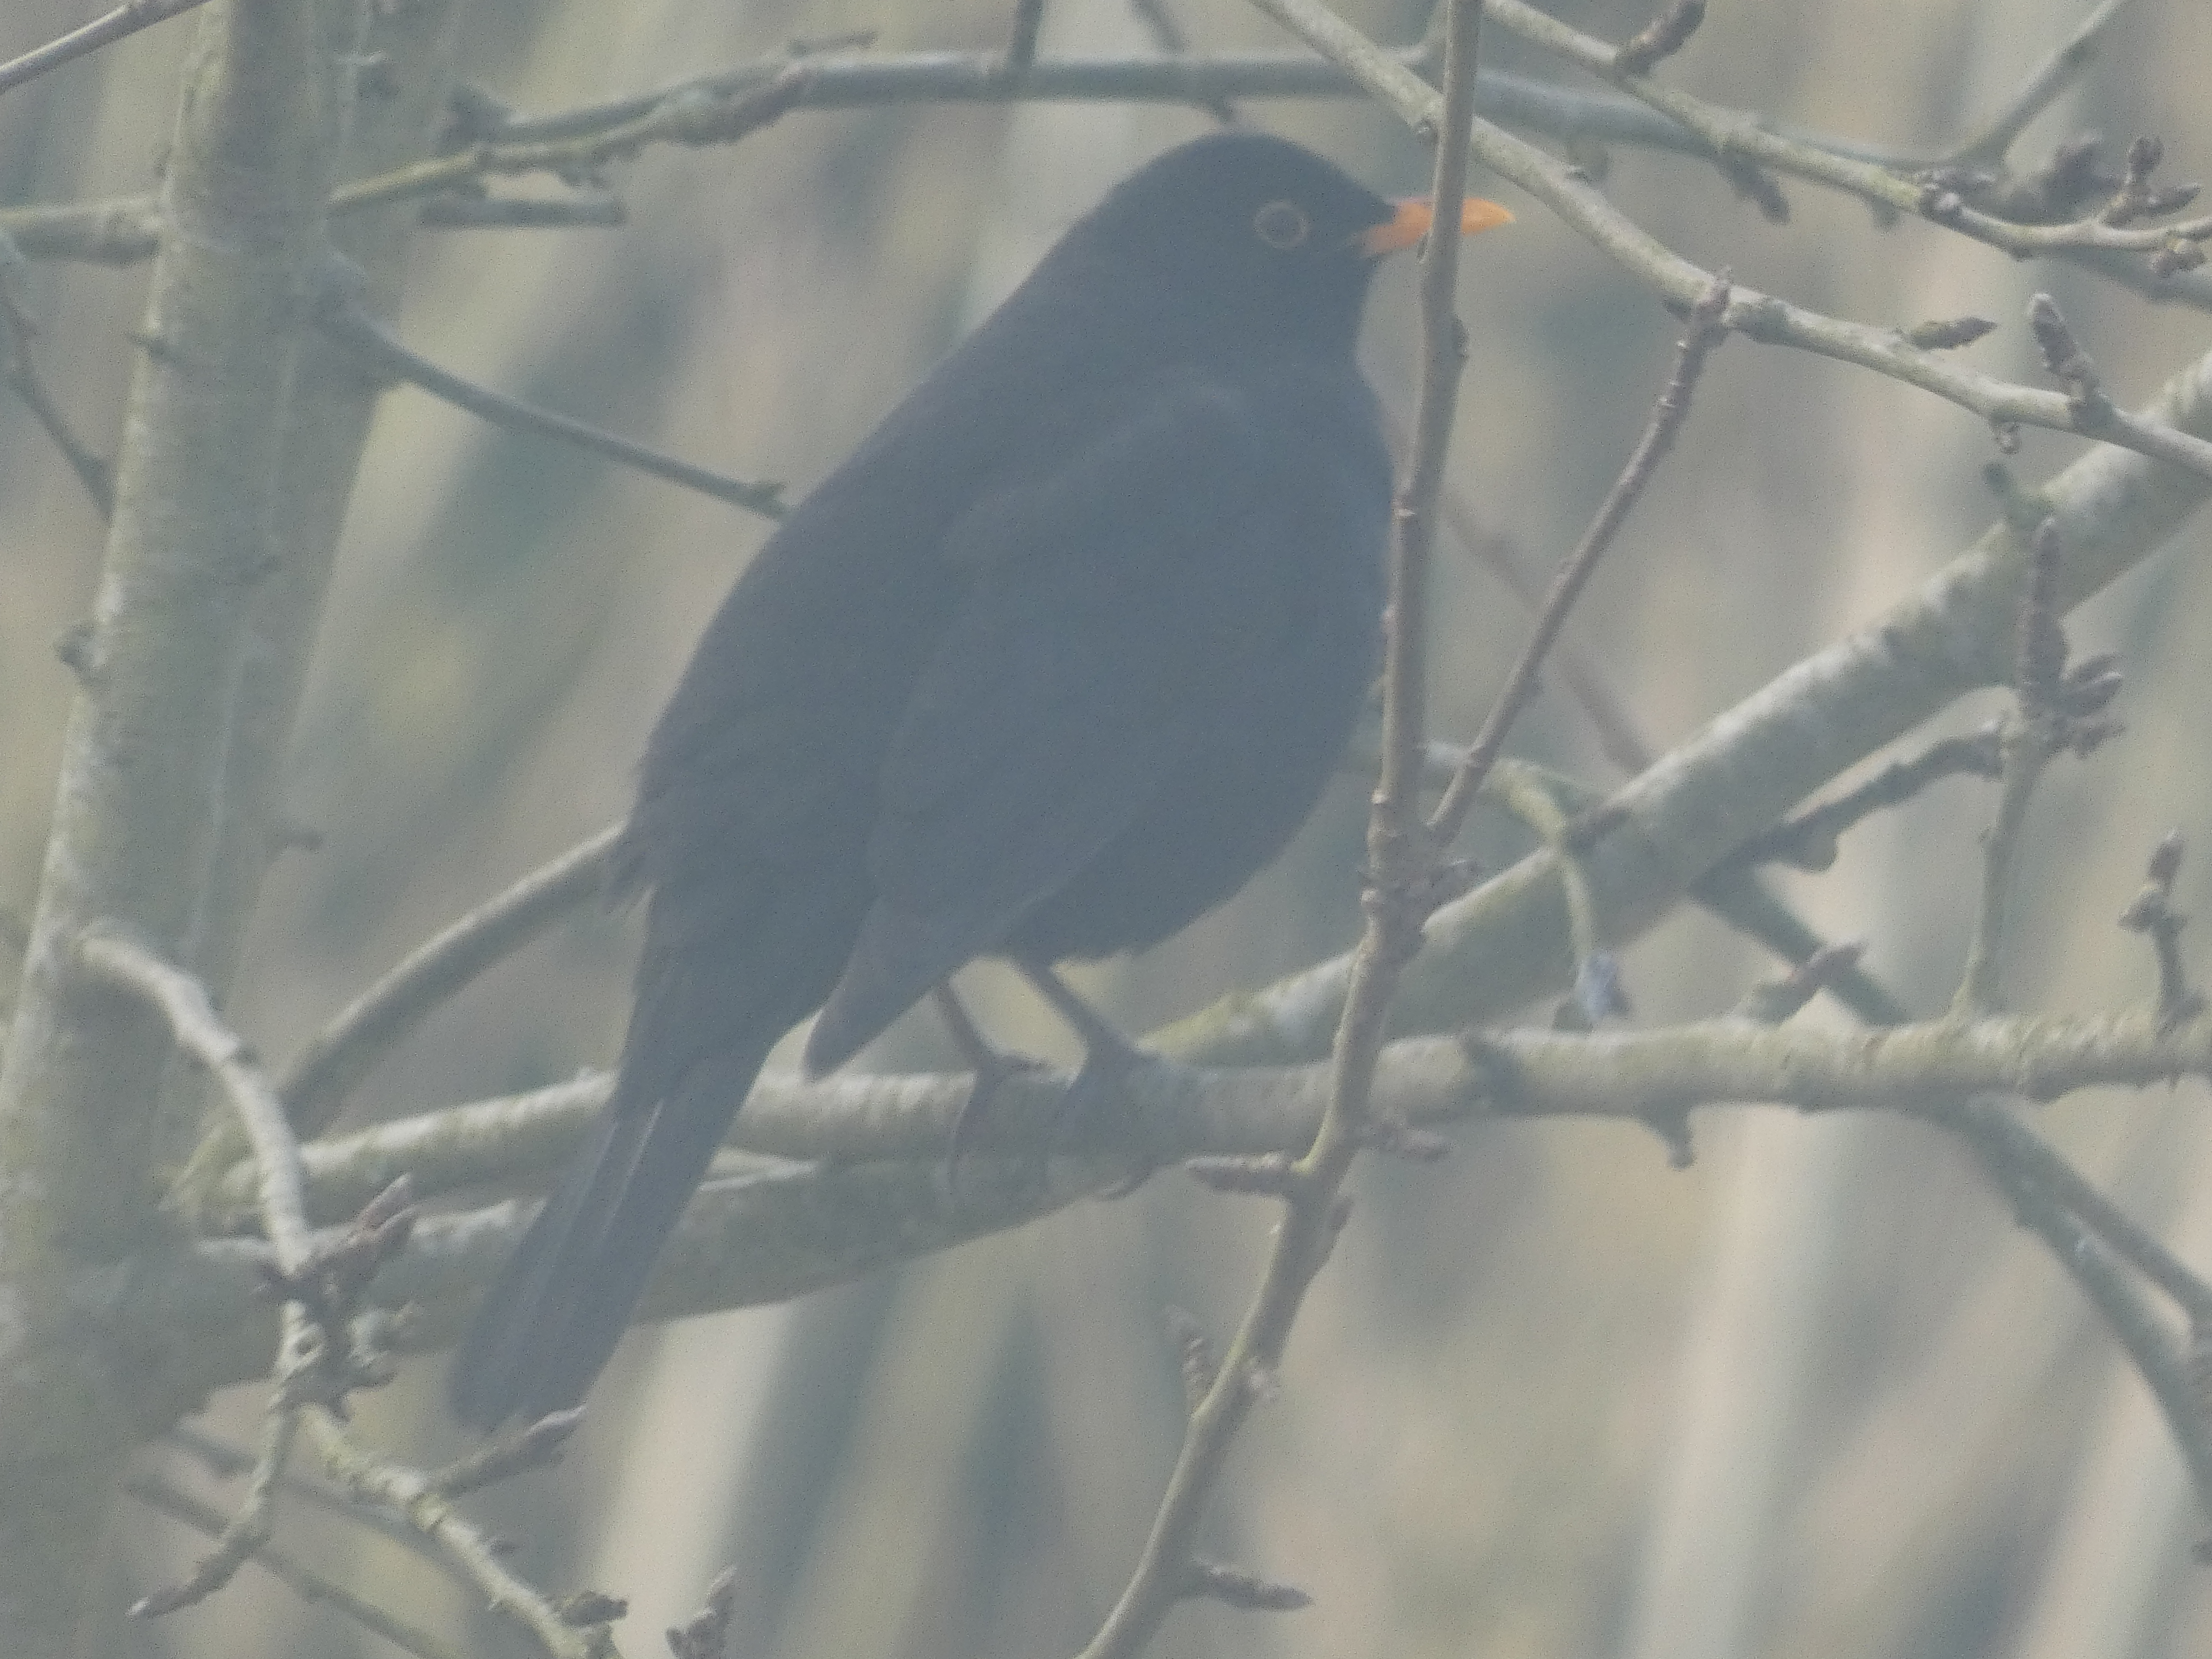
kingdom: Animalia
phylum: Chordata
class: Aves
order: Passeriformes
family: Turdidae
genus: Turdus
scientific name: Turdus merula
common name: Solsort
